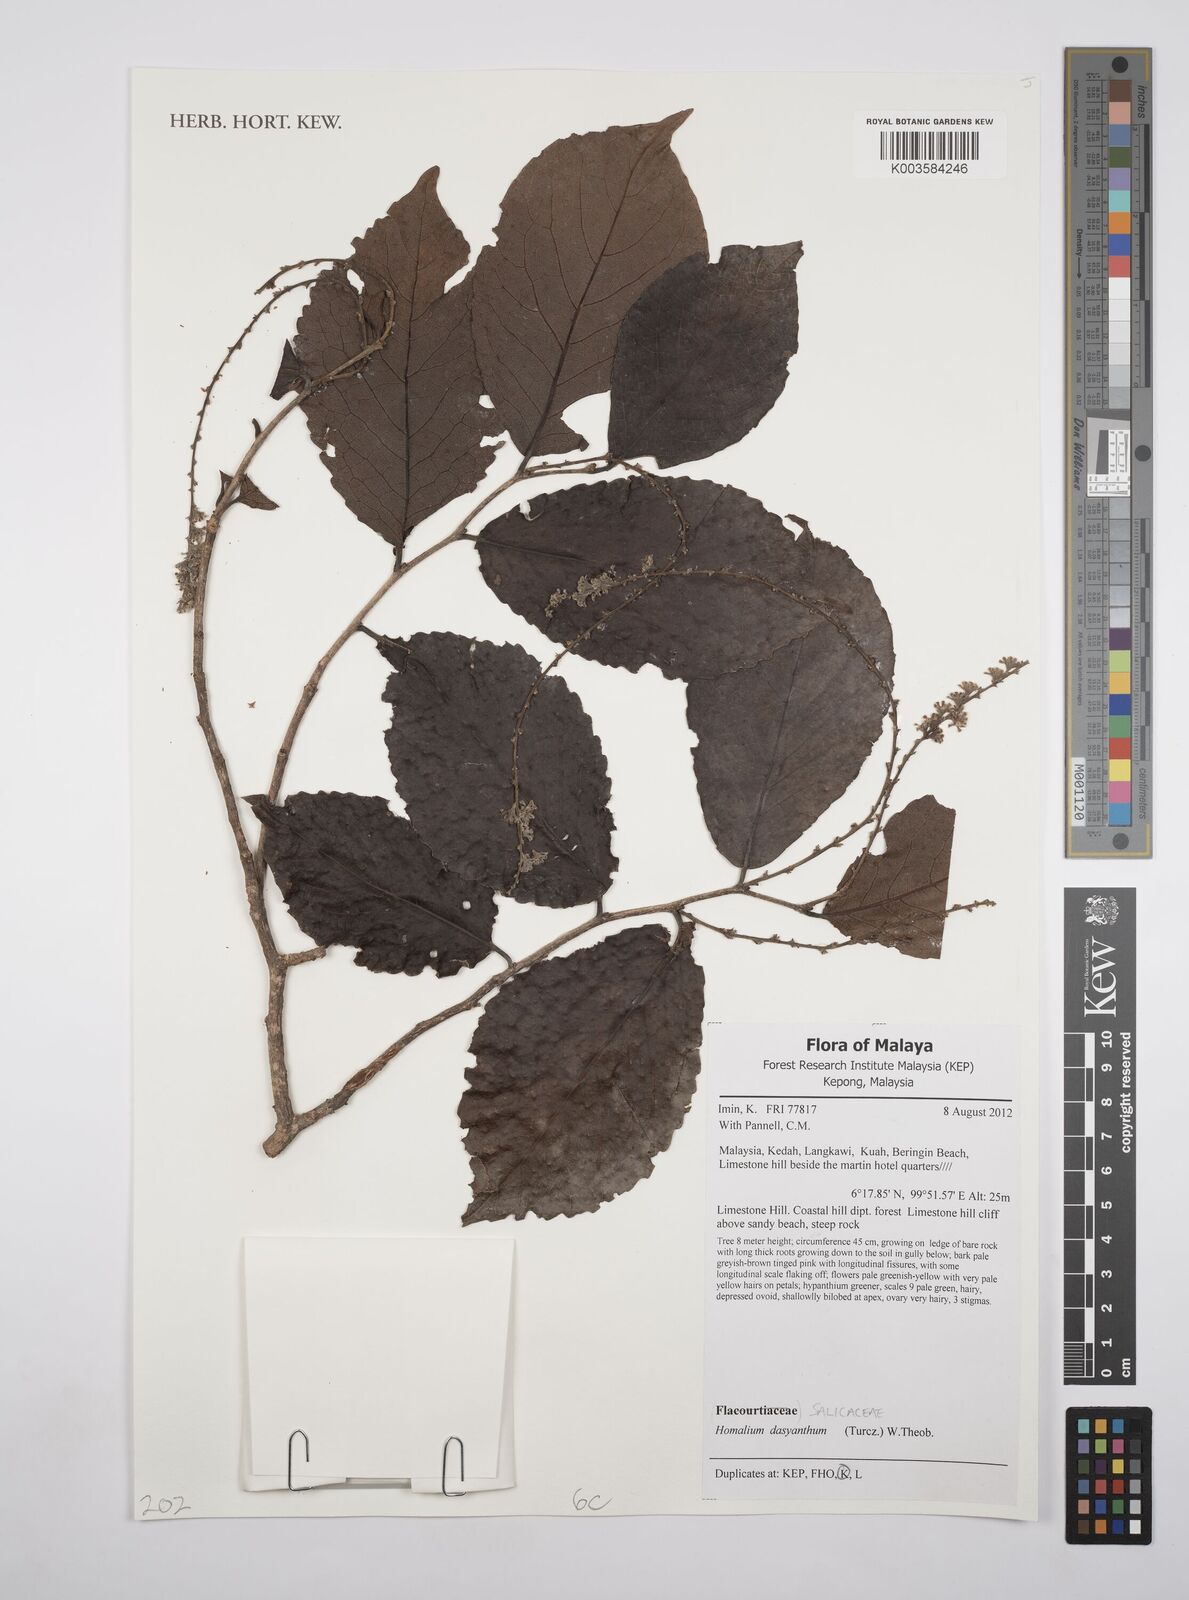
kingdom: Plantae
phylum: Tracheophyta
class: Magnoliopsida
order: Malpighiales
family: Salicaceae
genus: Homalium
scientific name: Homalium dasyanthum
